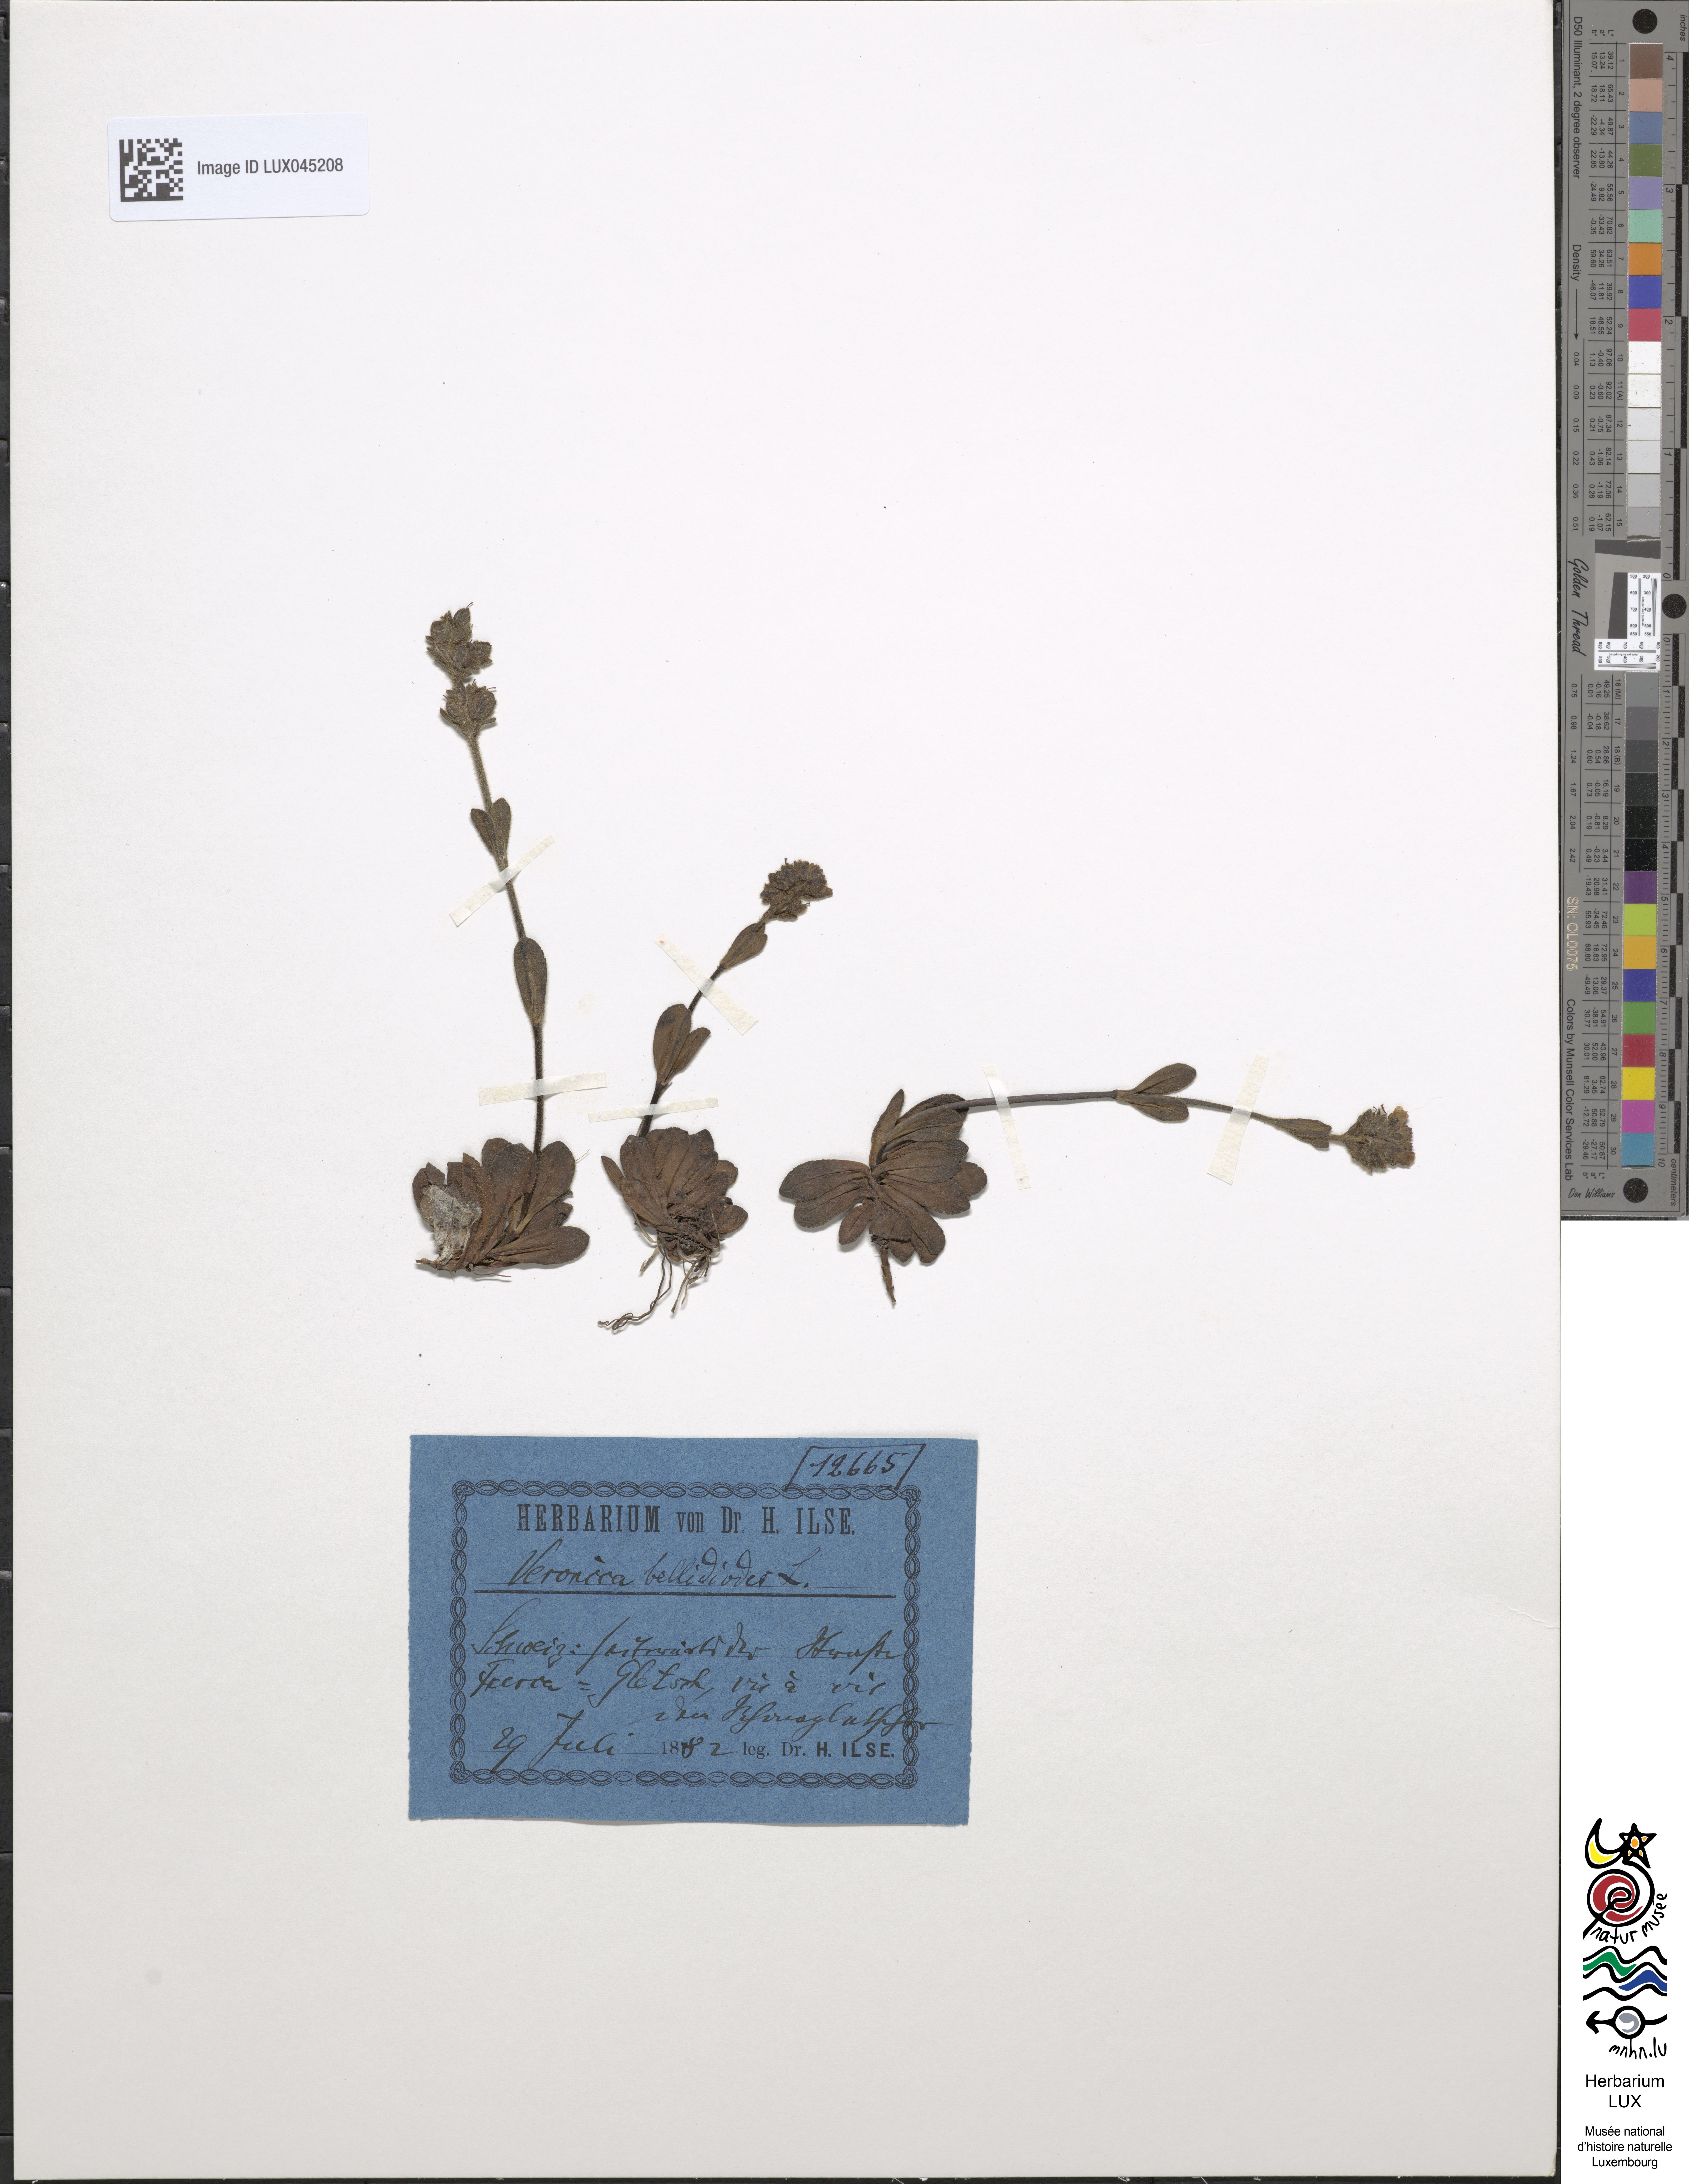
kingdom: Plantae
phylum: Tracheophyta
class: Magnoliopsida
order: Lamiales
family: Plantaginaceae
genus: Veronica
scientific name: Veronica bellidioides
